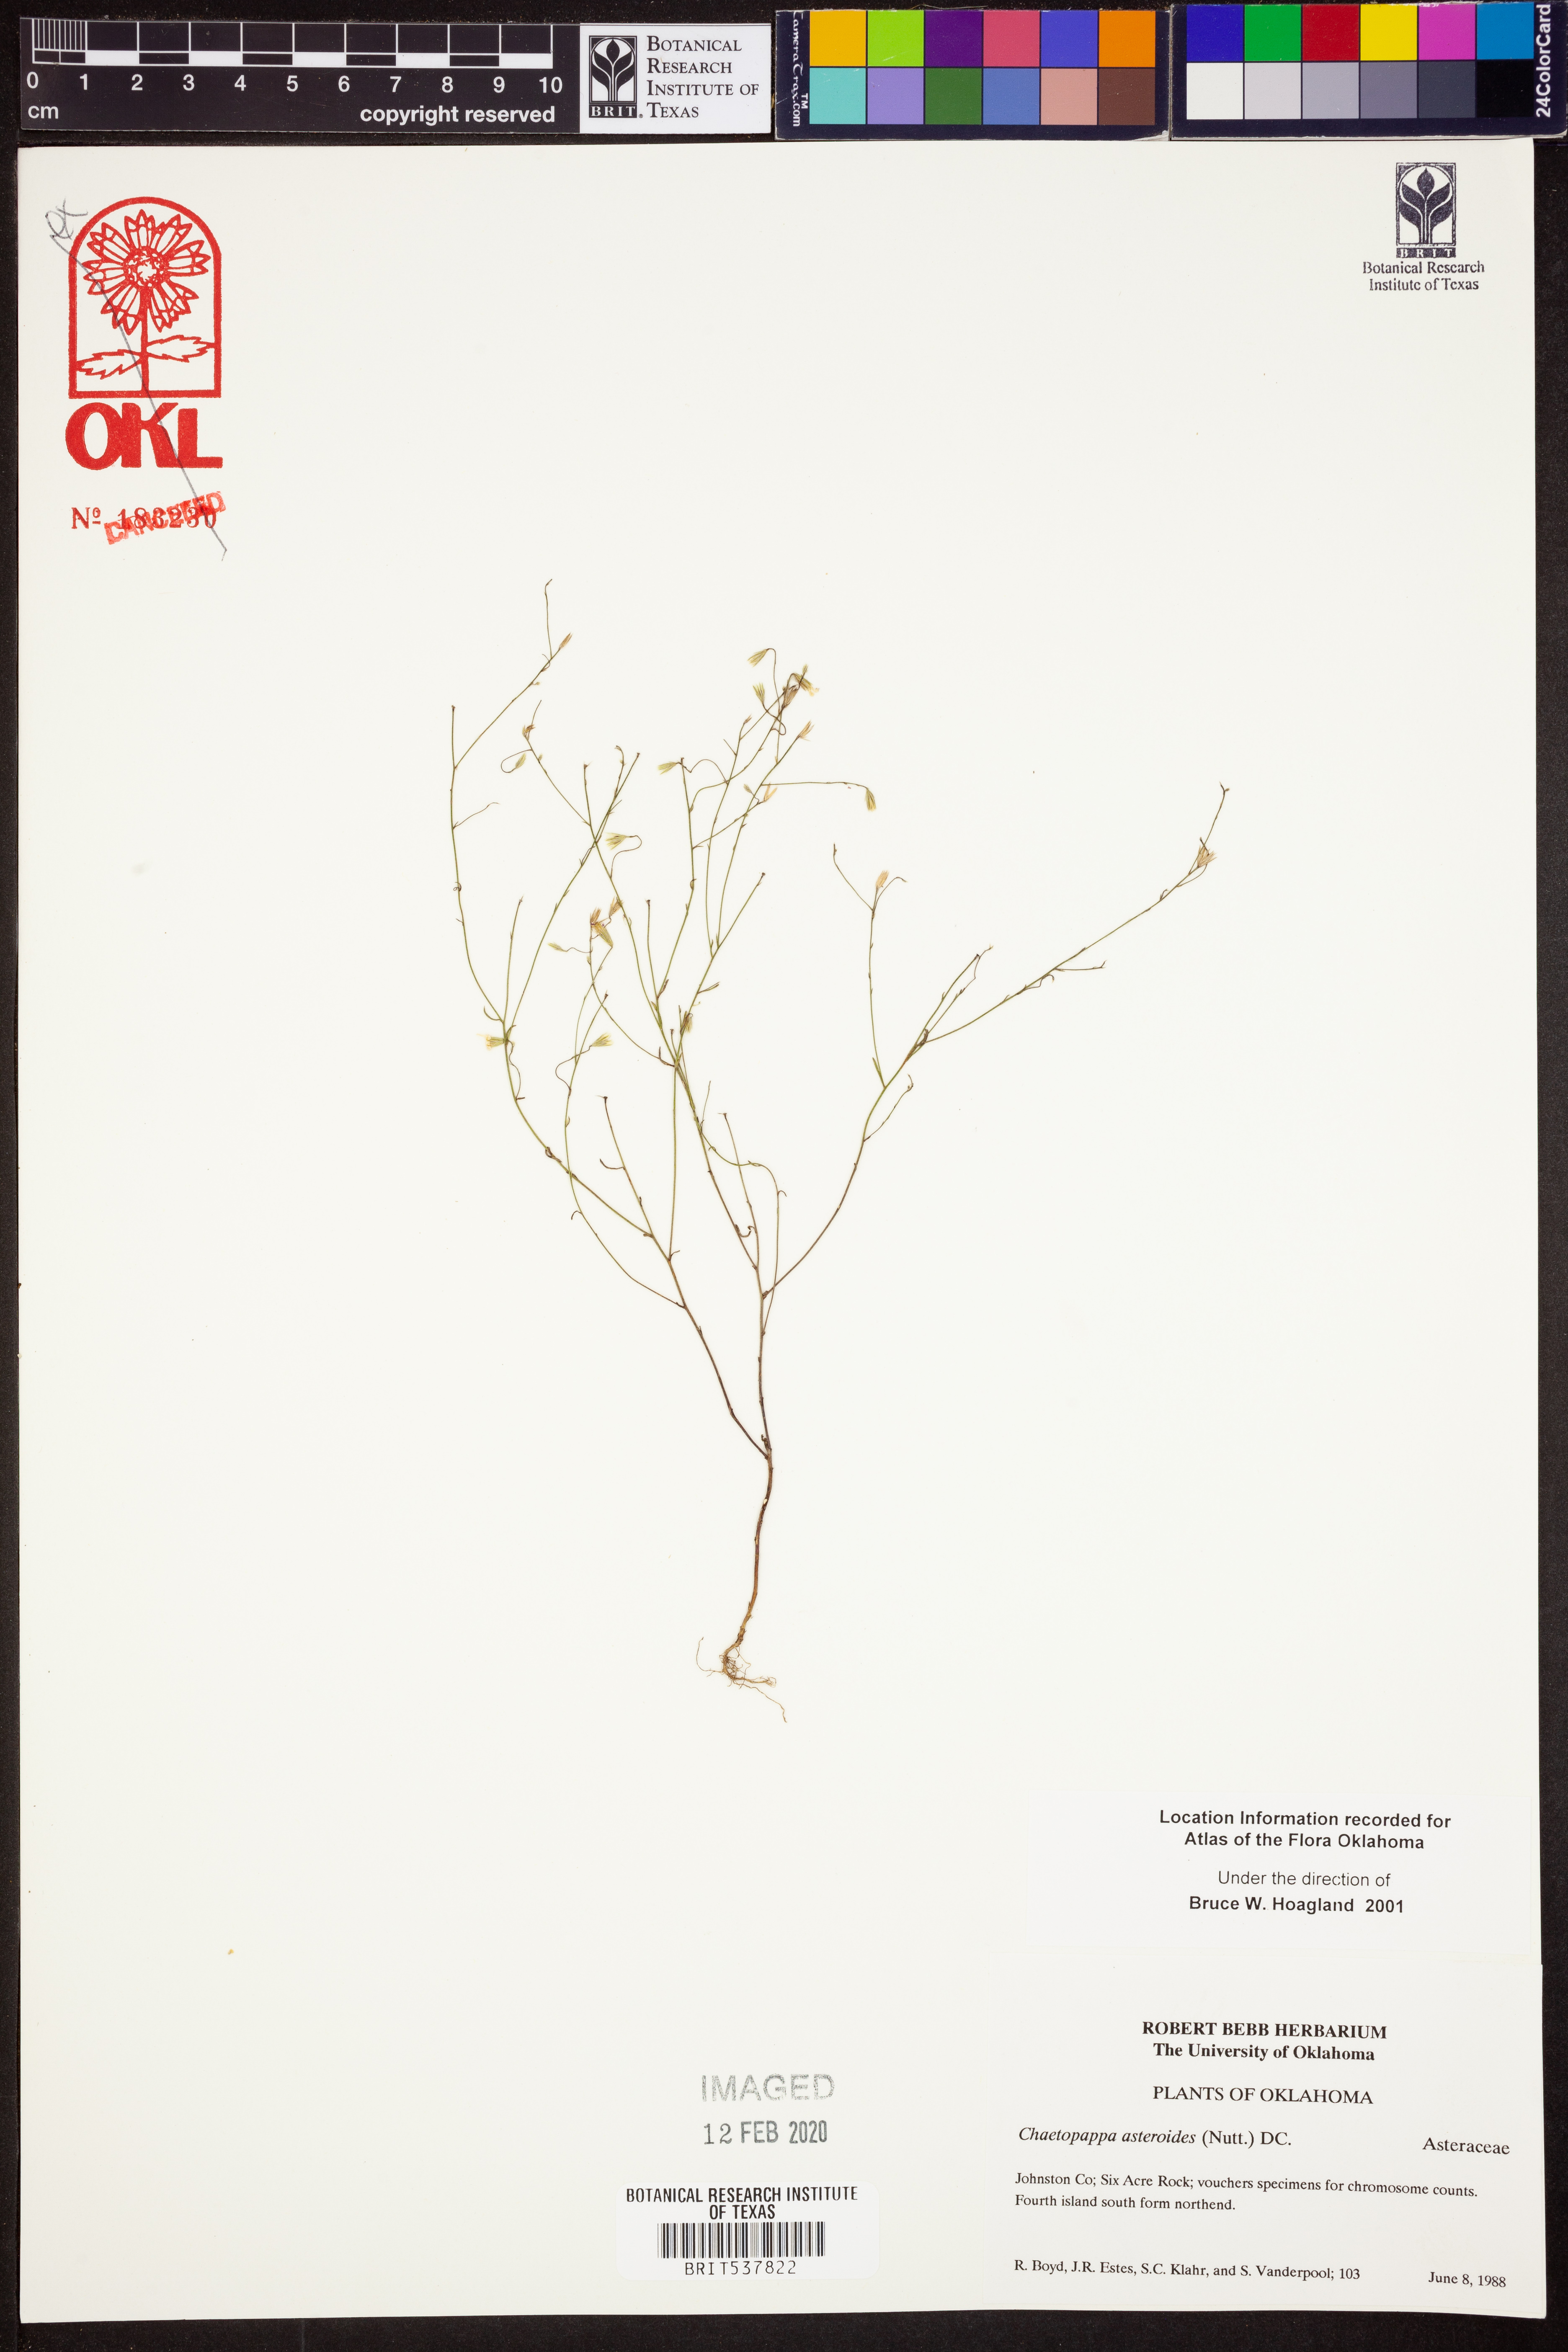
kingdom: Plantae
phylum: Tracheophyta
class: Magnoliopsida
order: Asterales
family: Asteraceae
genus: Chaetopappa
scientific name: Chaetopappa asteroides
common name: Tiny lazy daisy
